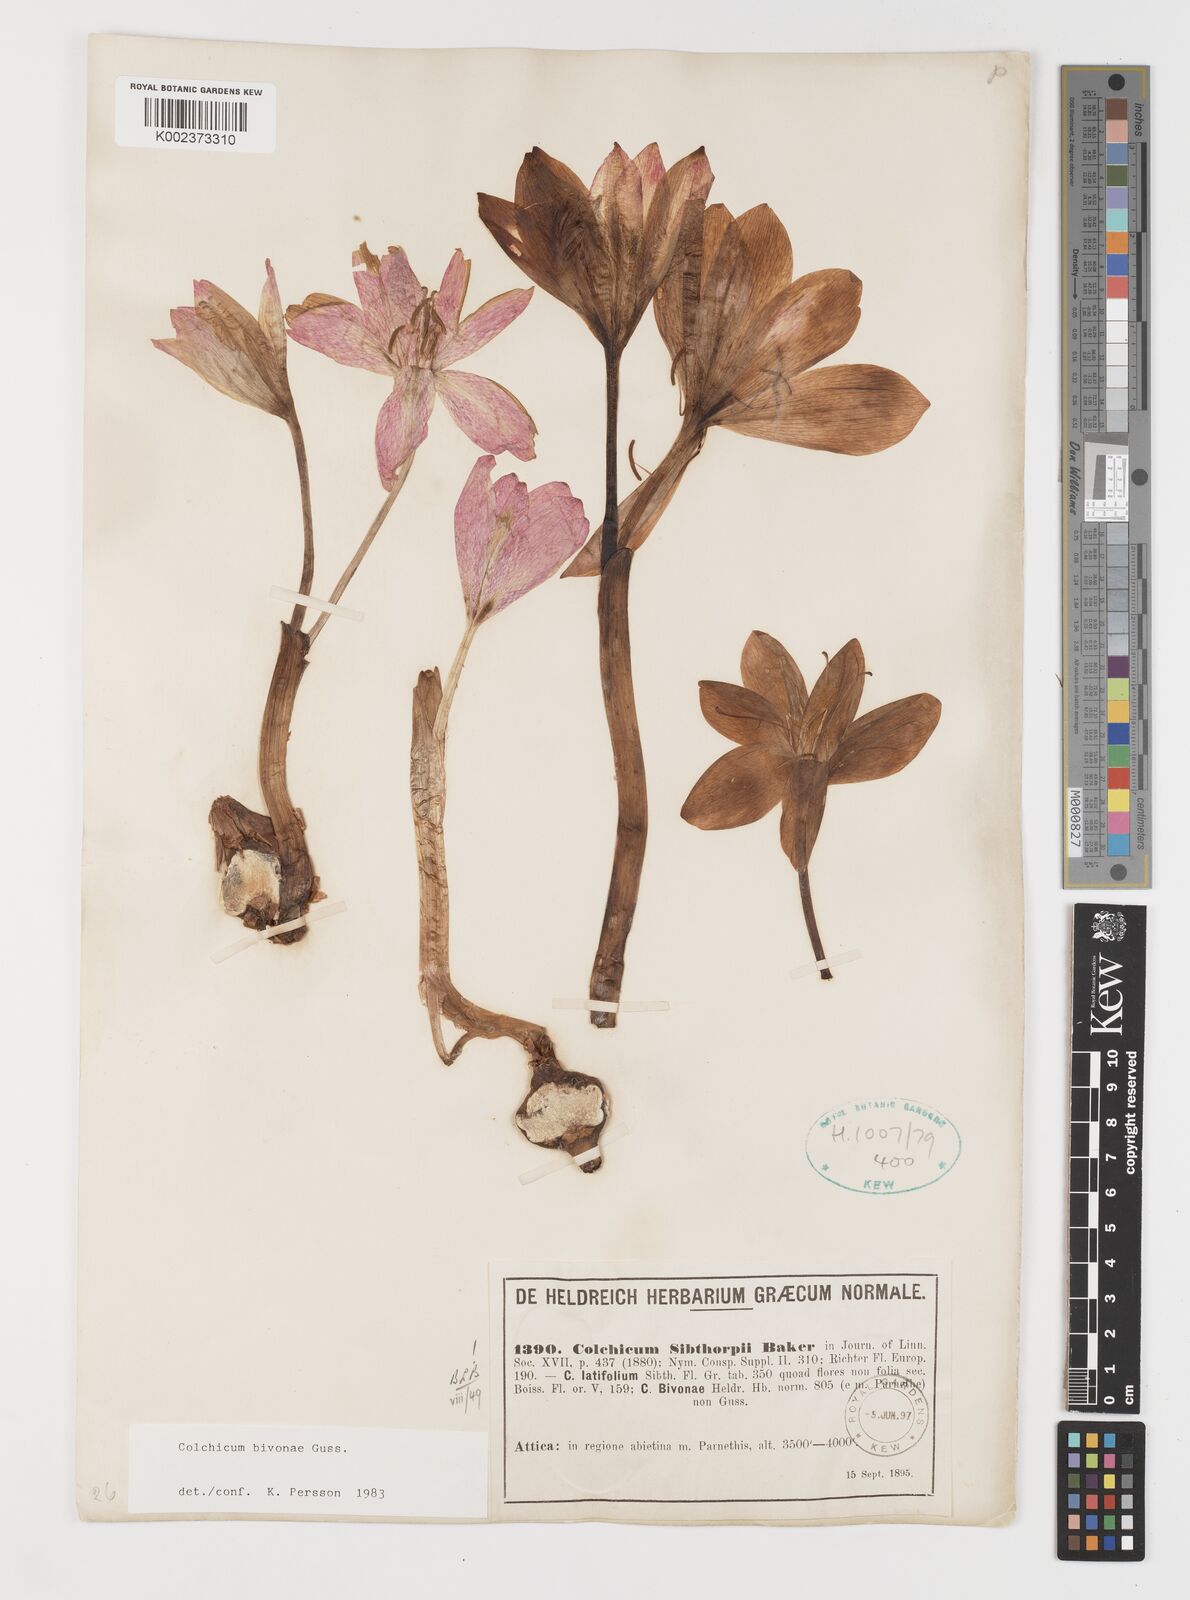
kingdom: Plantae
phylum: Tracheophyta
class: Liliopsida
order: Liliales
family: Colchicaceae
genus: Colchicum
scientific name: Colchicum bivonae
